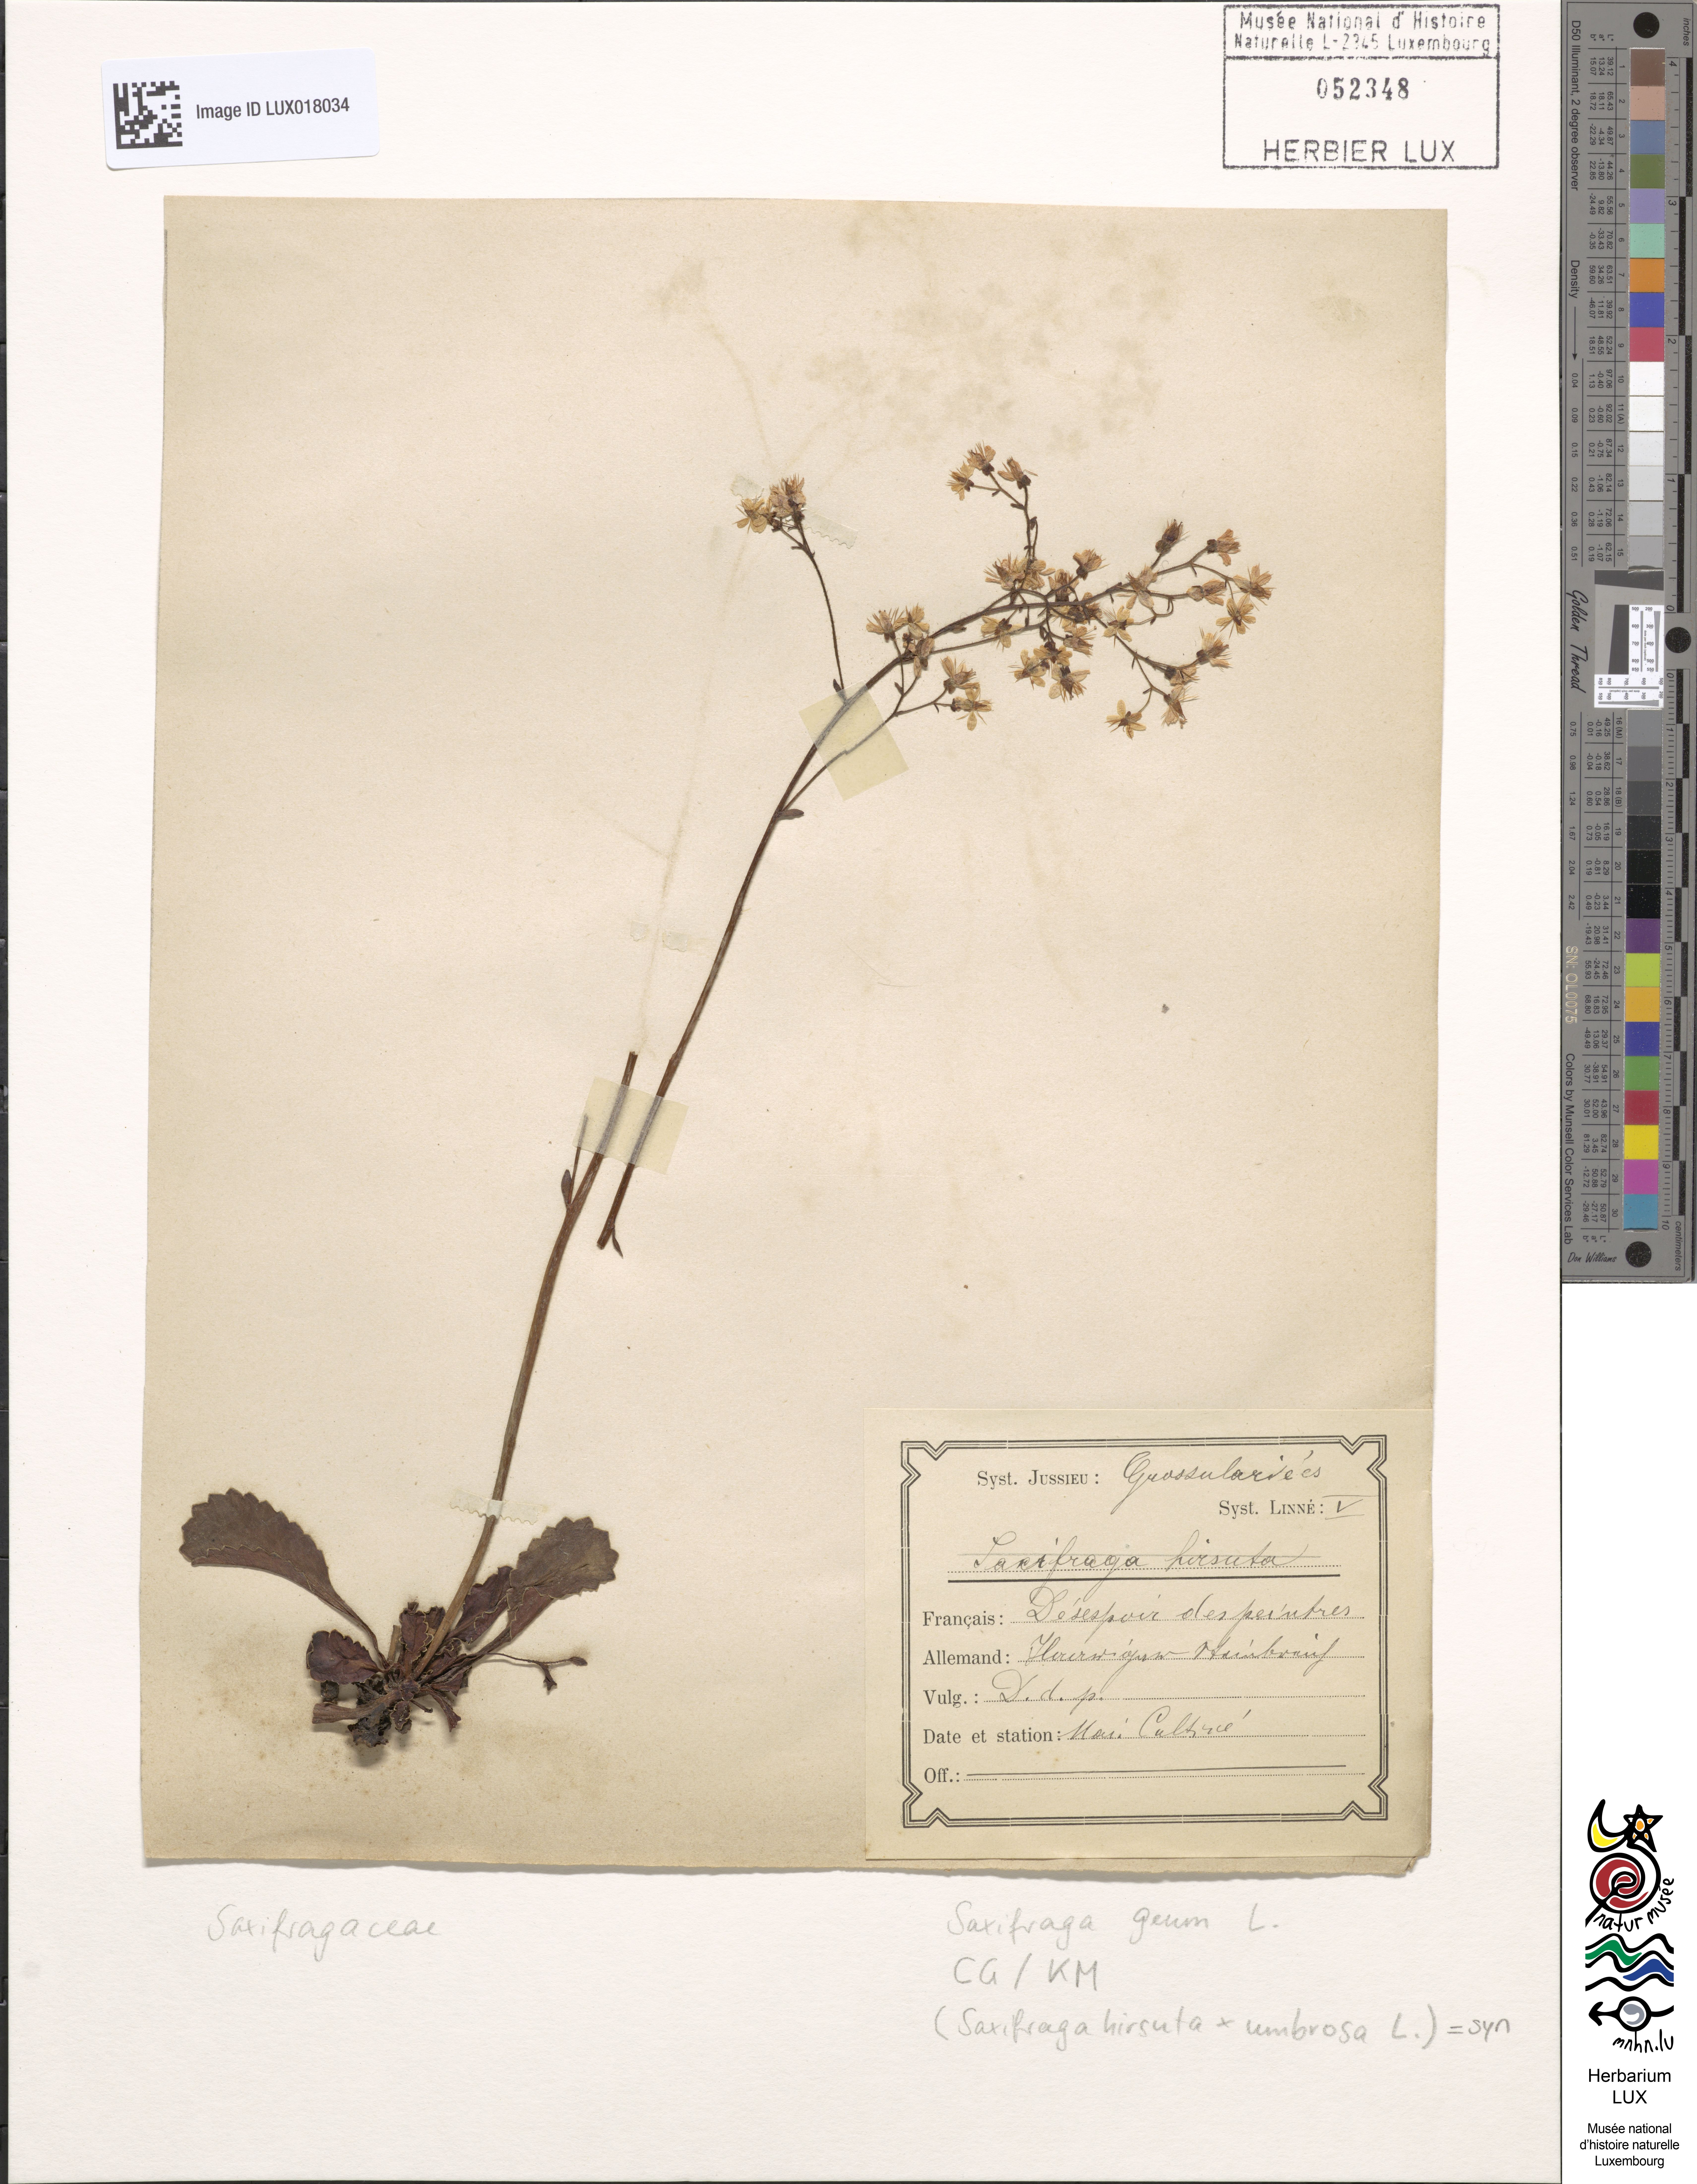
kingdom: Plantae
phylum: Tracheophyta
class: Magnoliopsida
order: Saxifragales
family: Saxifragaceae
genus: Saxifraga
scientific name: Saxifraga hirsuta
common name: Kidney saxifrage
